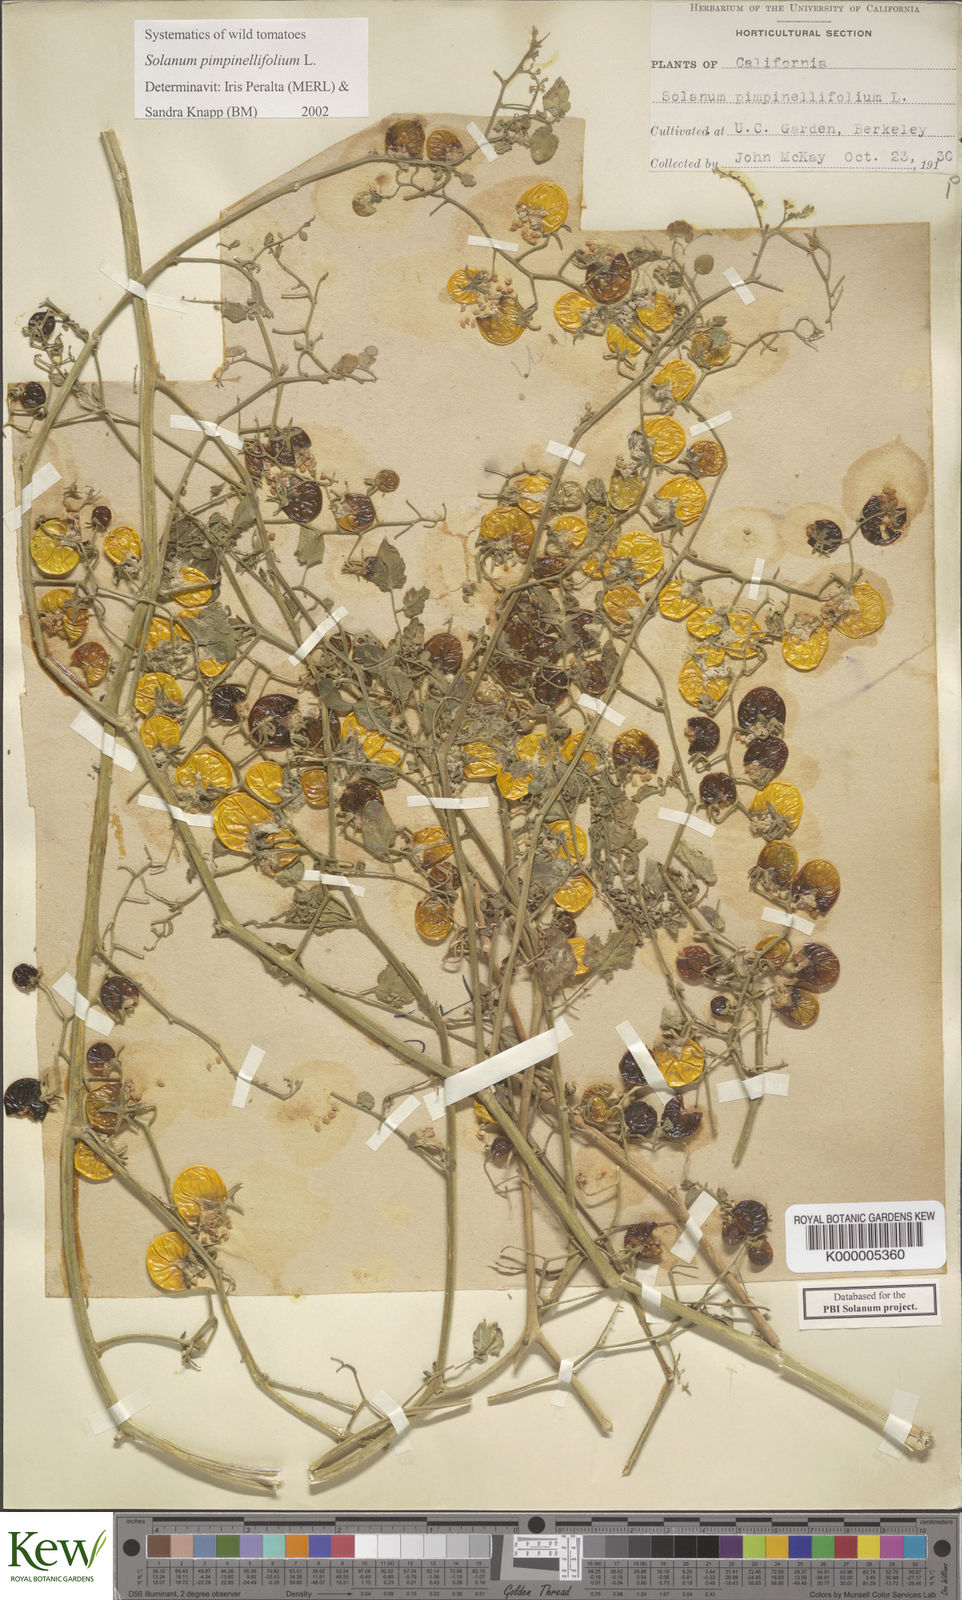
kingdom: Plantae
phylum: Tracheophyta
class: Magnoliopsida
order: Solanales
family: Solanaceae
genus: Solanum
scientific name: Solanum pimpinellifolium
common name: Currant-tomato
